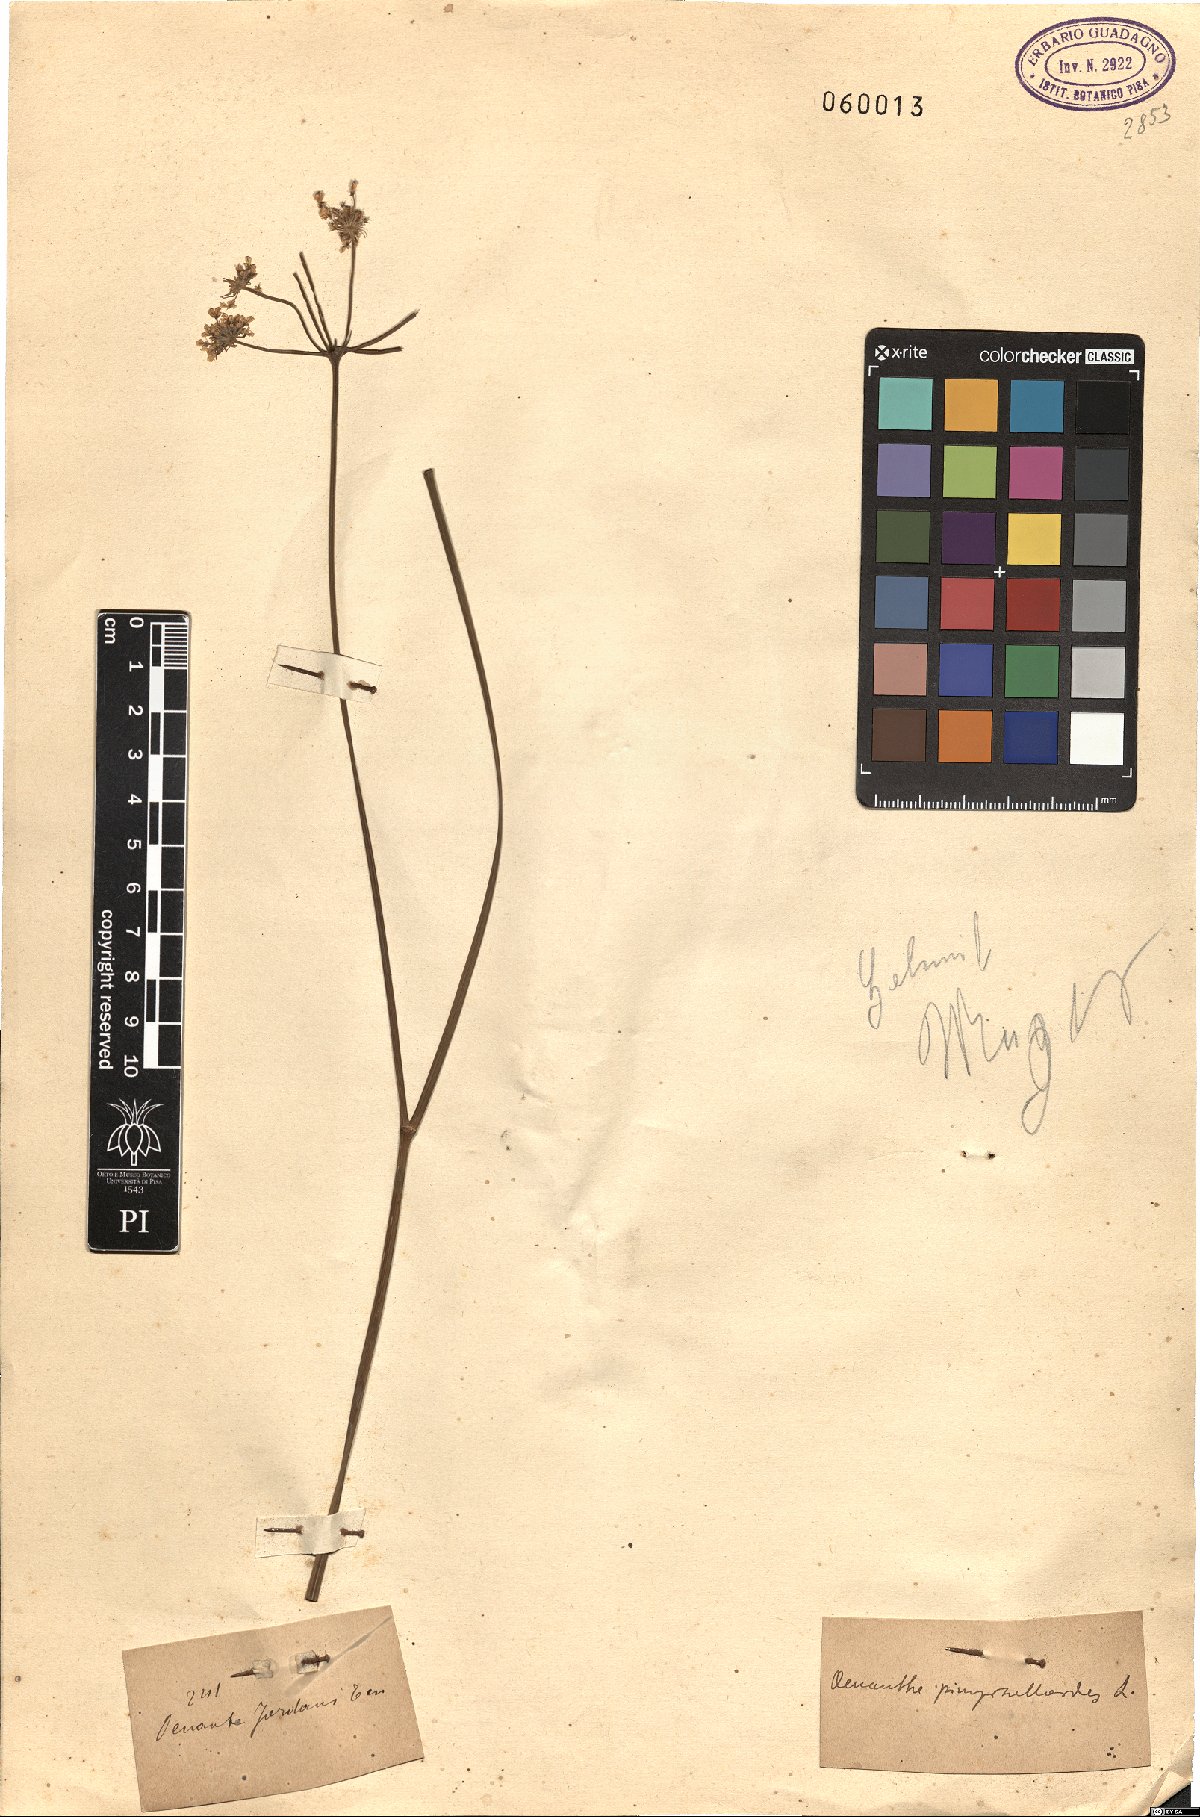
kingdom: Plantae
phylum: Tracheophyta
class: Magnoliopsida
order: Apiales
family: Apiaceae
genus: Oenanthe
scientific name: Oenanthe pimpinelloides
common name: Corky-fruited water-dropwort
